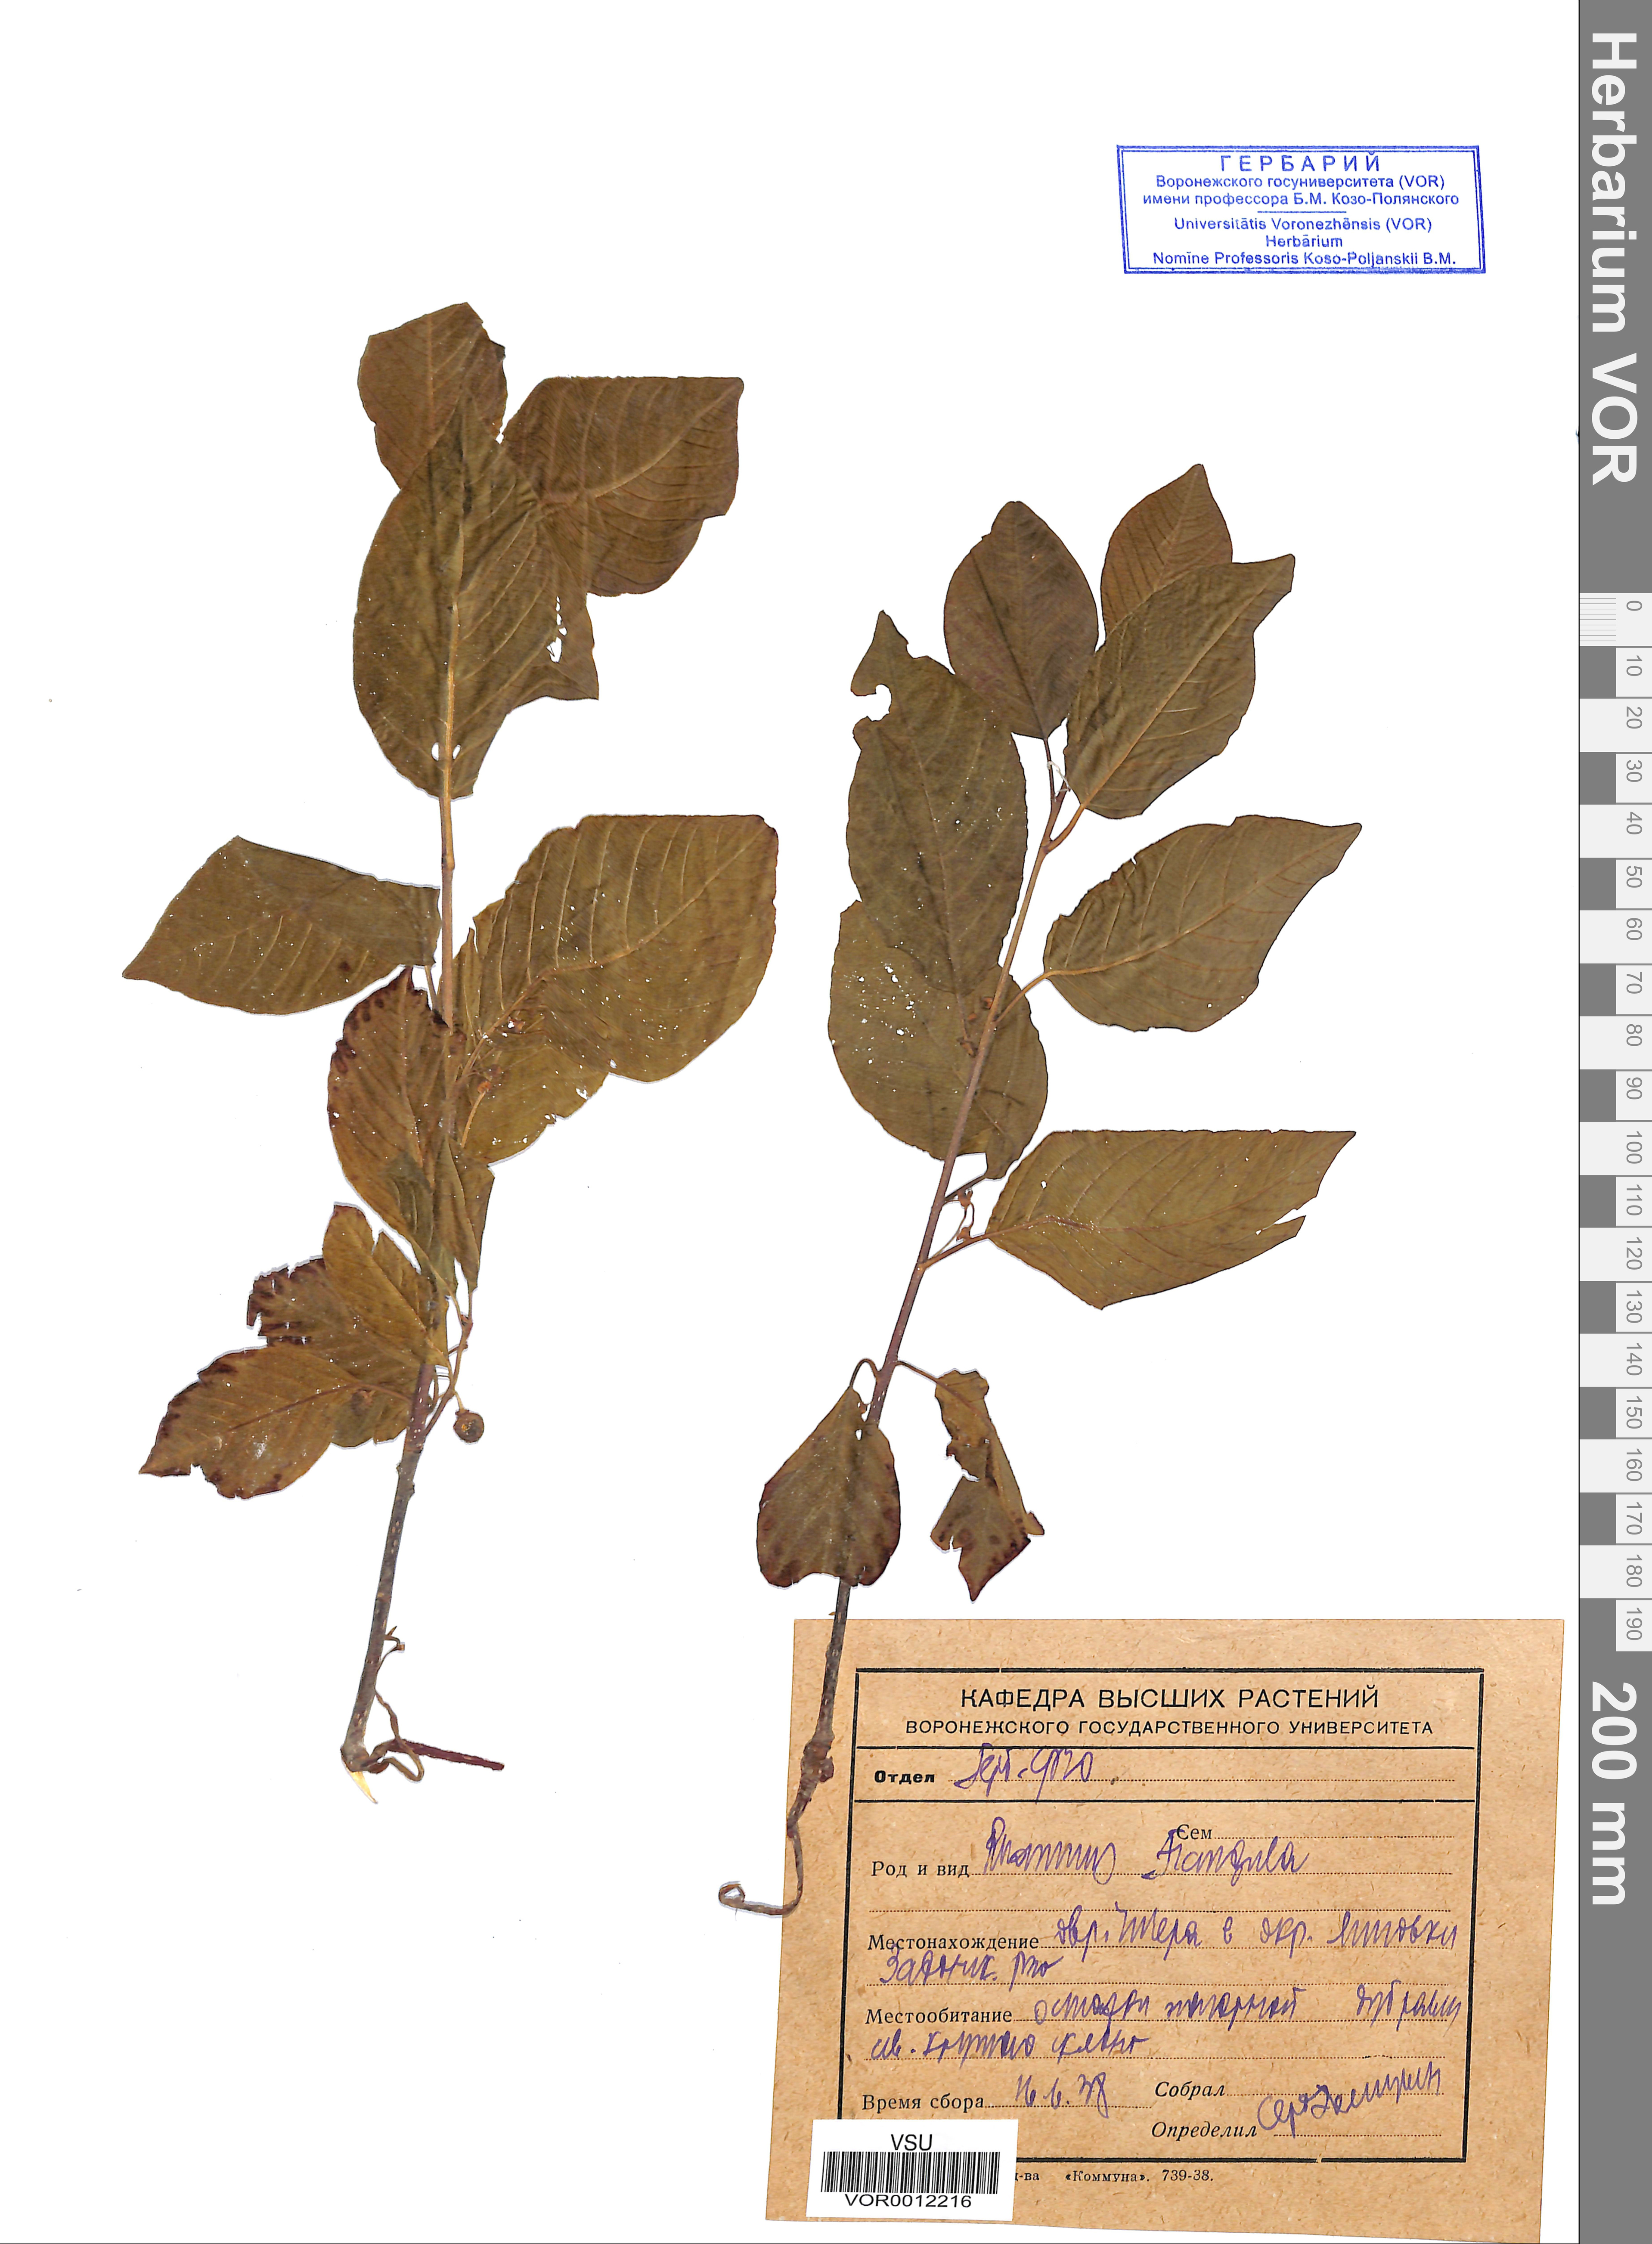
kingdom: Plantae
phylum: Tracheophyta
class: Magnoliopsida
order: Rosales
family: Rhamnaceae
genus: Frangula
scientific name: Frangula alnus
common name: Alder buckthorn
